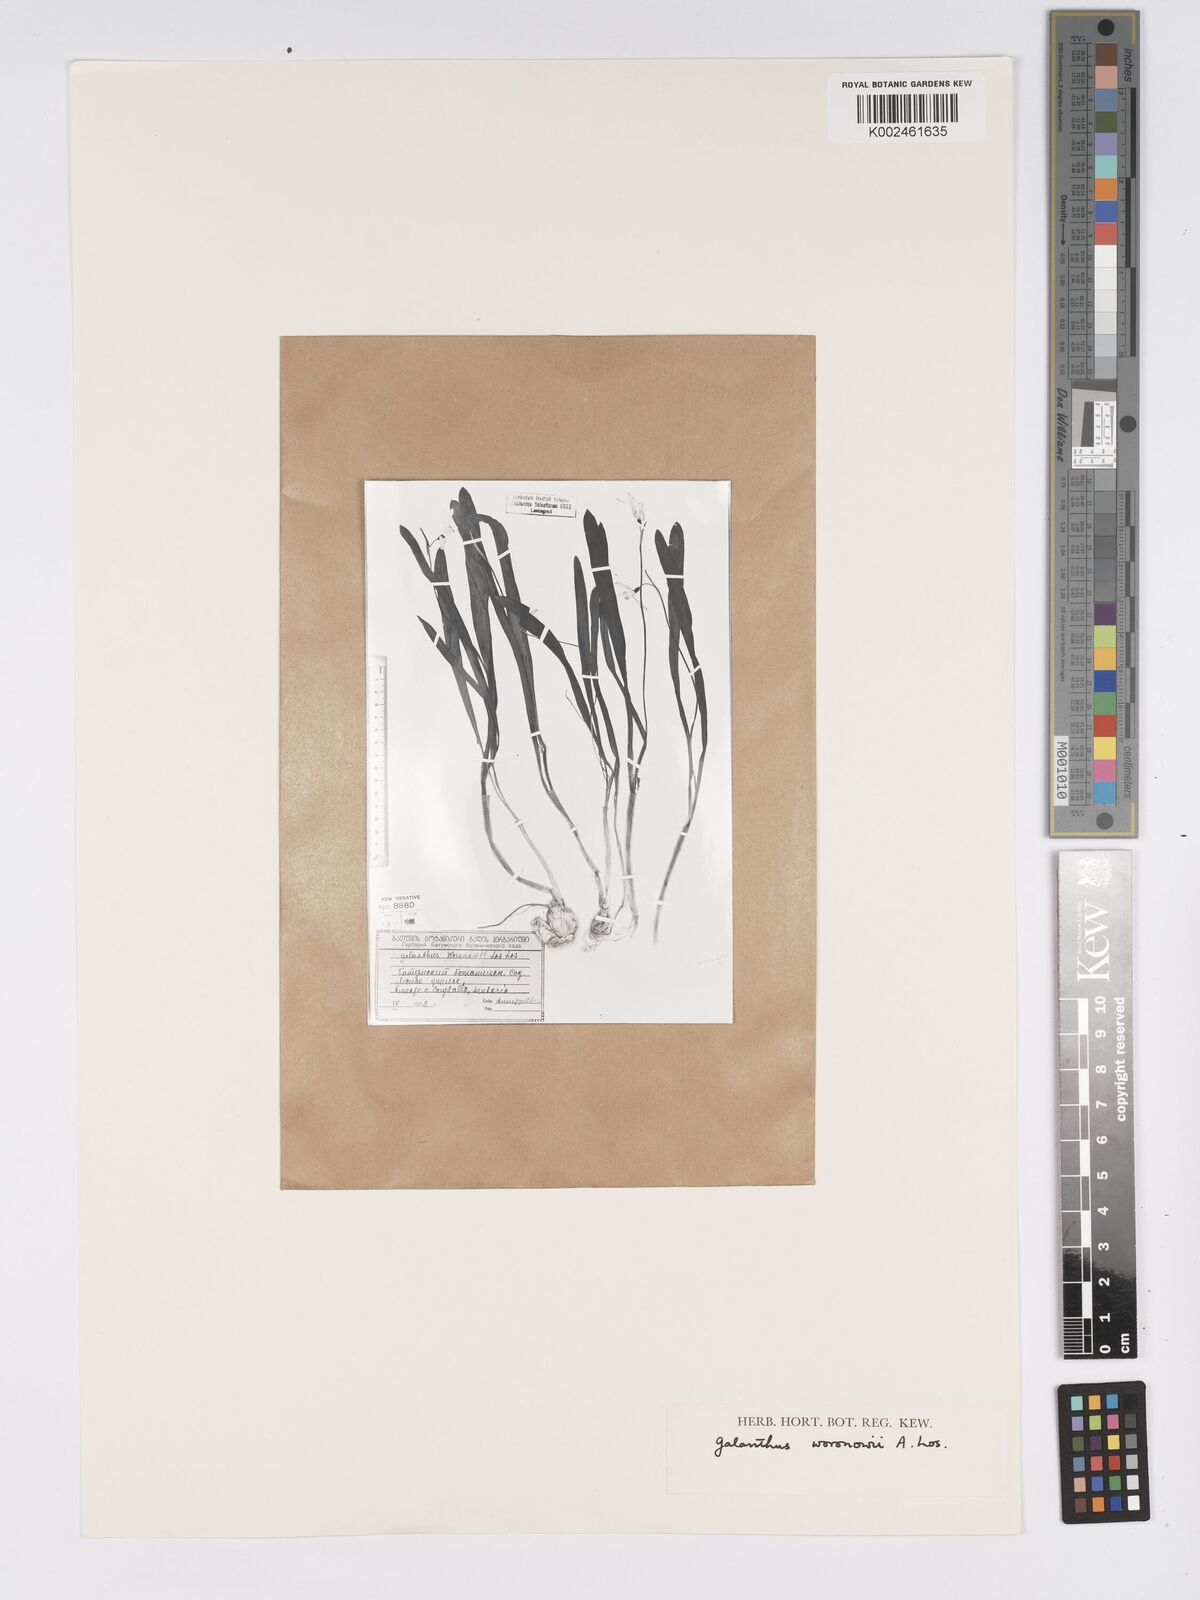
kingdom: Plantae
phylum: Tracheophyta
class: Liliopsida
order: Asparagales
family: Amaryllidaceae
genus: Galanthus
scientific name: Galanthus woronowii
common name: Green snowdrop
